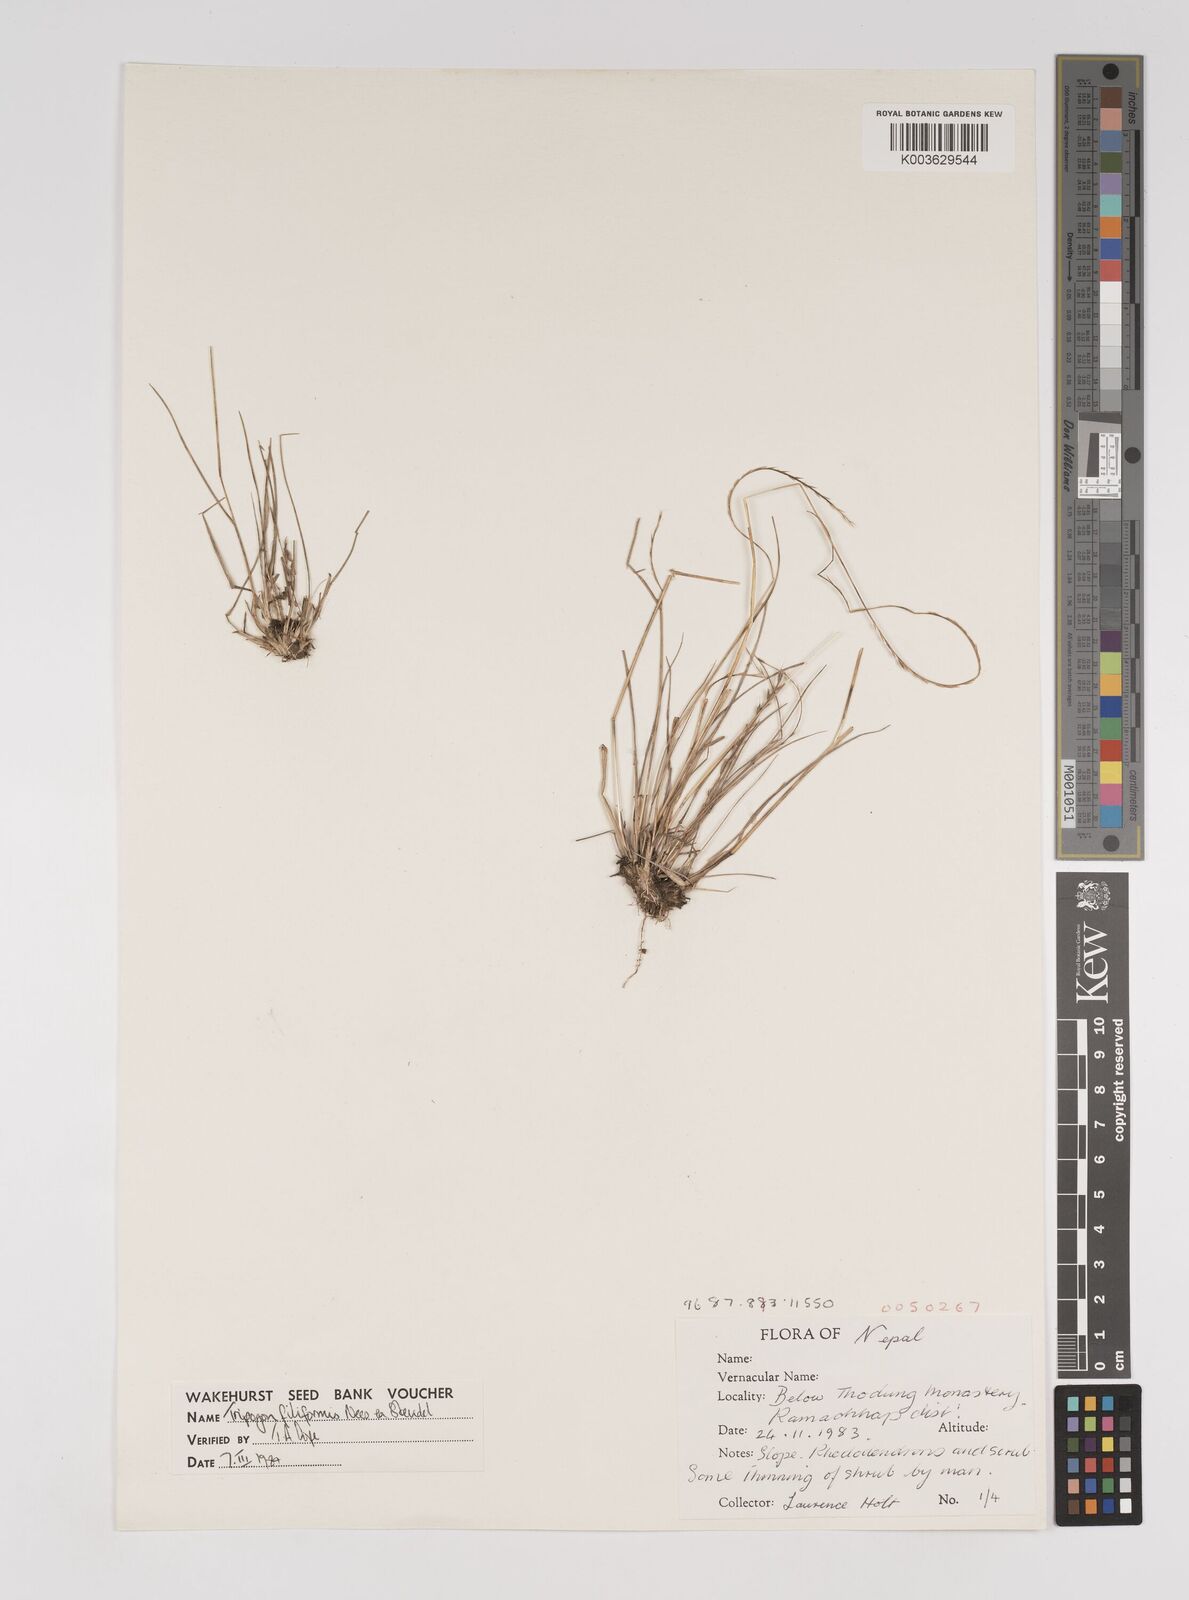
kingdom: Plantae
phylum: Tracheophyta
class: Liliopsida
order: Poales
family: Poaceae
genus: Tripogon
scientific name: Tripogon filiformis
